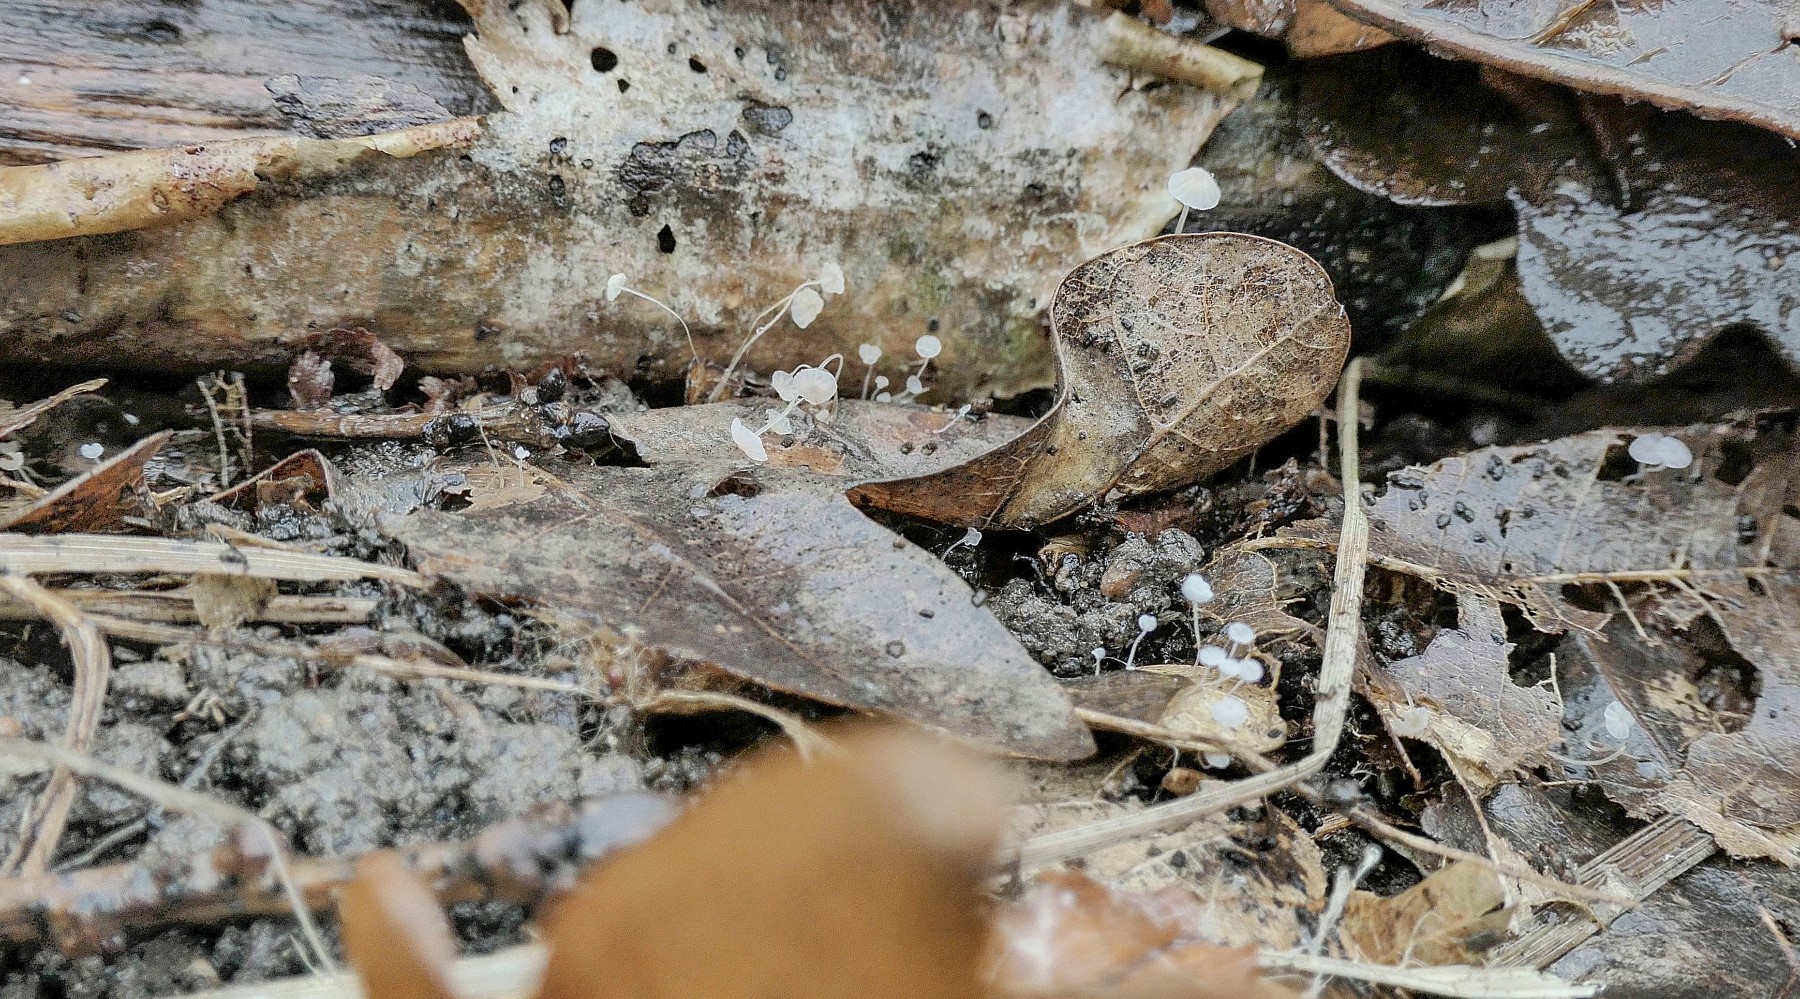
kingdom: Fungi
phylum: Basidiomycota
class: Agaricomycetes
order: Agaricales
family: Mycenaceae
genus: Mycena
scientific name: Mycena
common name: huesvamp
